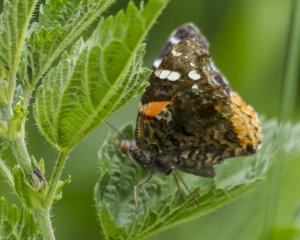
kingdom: Animalia
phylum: Arthropoda
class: Insecta
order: Lepidoptera
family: Nymphalidae
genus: Vanessa
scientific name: Vanessa atalanta
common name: Red Admiral
